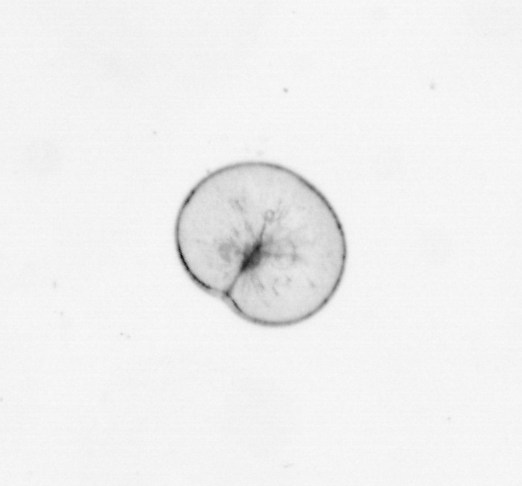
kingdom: Chromista
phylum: Myzozoa
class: Dinophyceae
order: Noctilucales
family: Noctilucaceae
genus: Noctiluca
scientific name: Noctiluca scintillans
